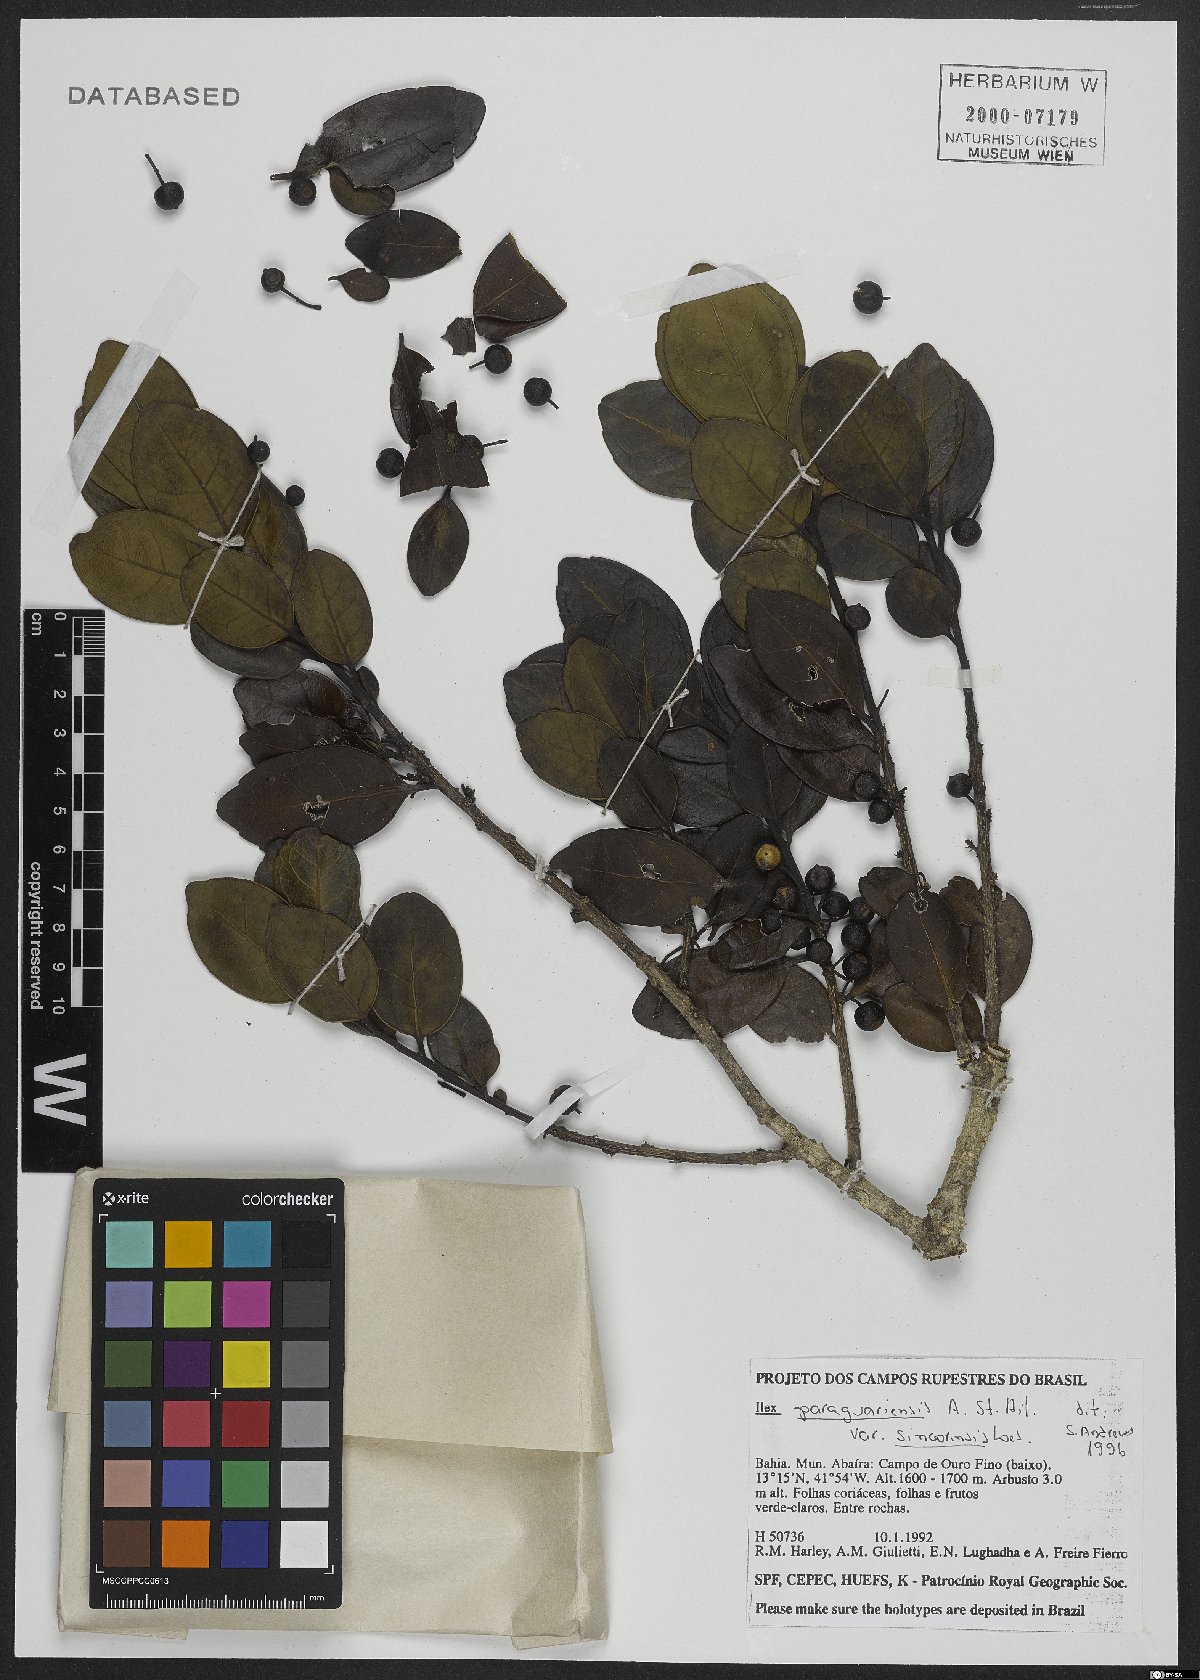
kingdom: Plantae
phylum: Tracheophyta
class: Magnoliopsida
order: Aquifoliales
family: Aquifoliaceae
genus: Ilex
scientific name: Ilex paraguariensis
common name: Paraguay tea
